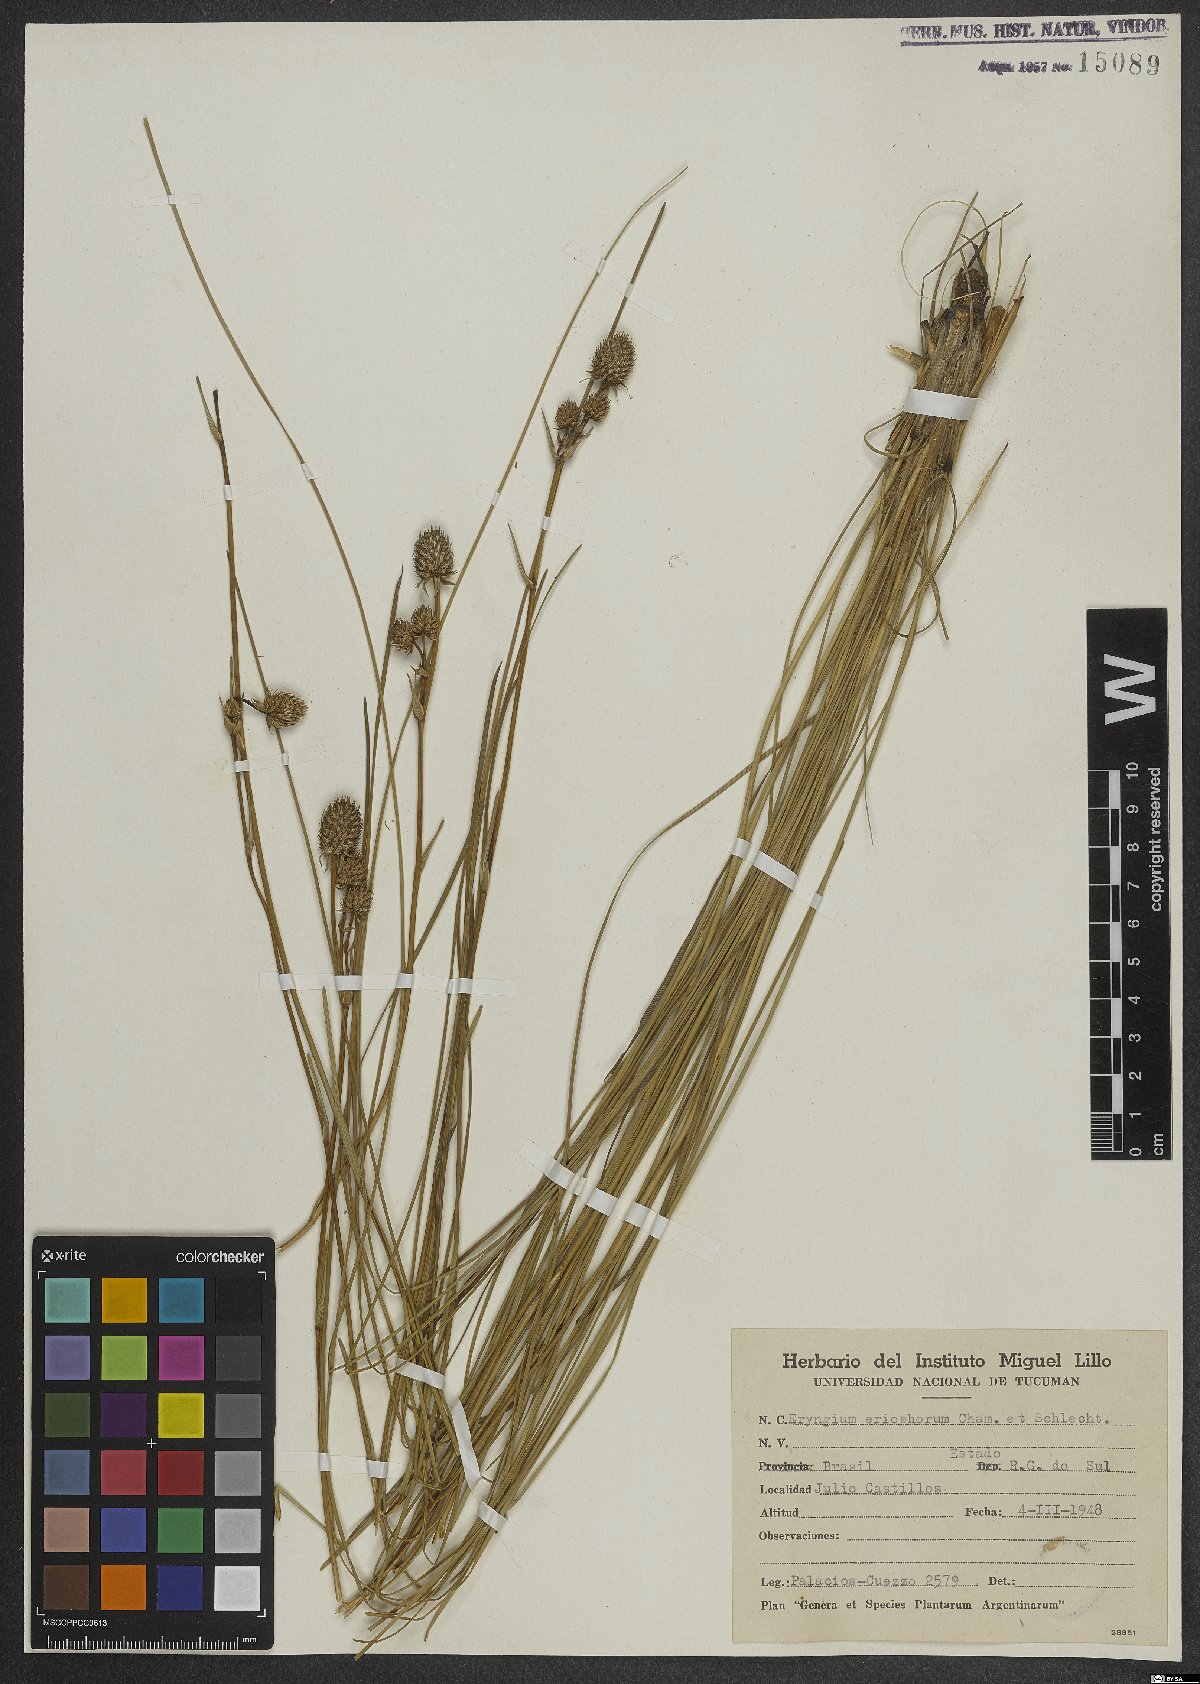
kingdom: Plantae
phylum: Tracheophyta
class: Magnoliopsida
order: Apiales
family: Apiaceae
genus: Eryngium
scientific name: Eryngium eriophorum
